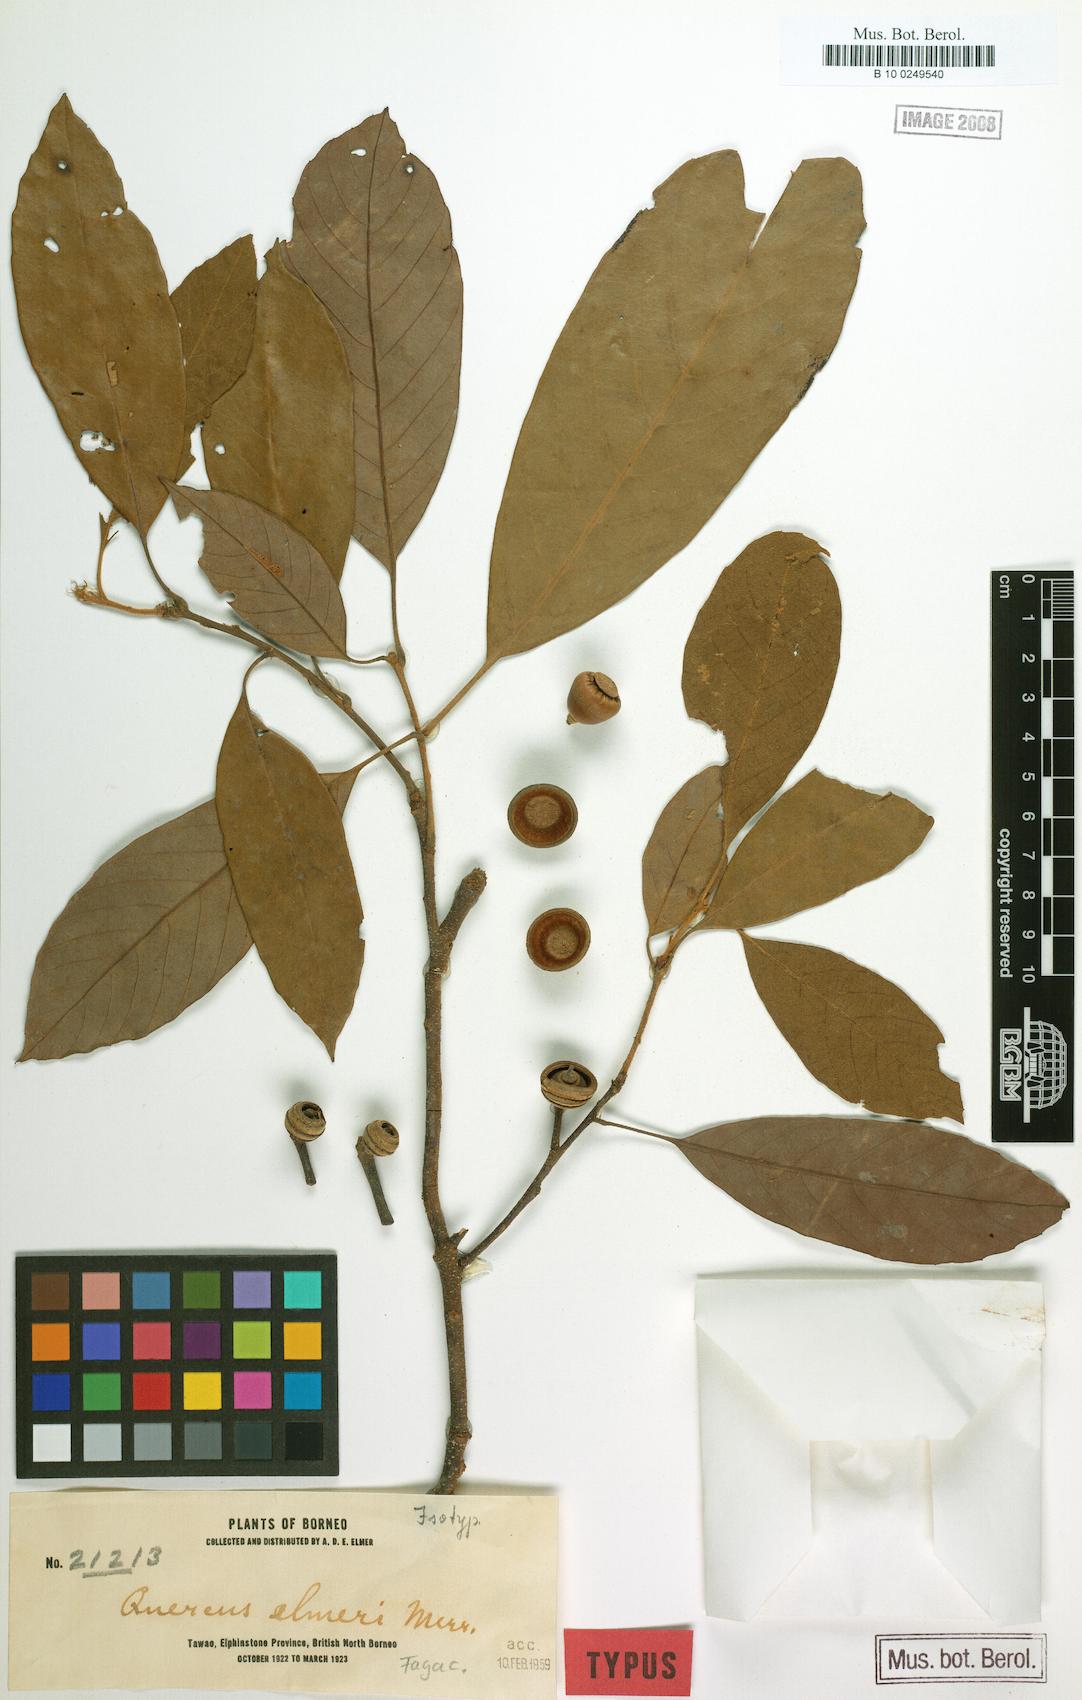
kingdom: Plantae
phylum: Tracheophyta
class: Magnoliopsida
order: Fagales
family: Fagaceae
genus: Quercus
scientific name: Quercus elmeri
